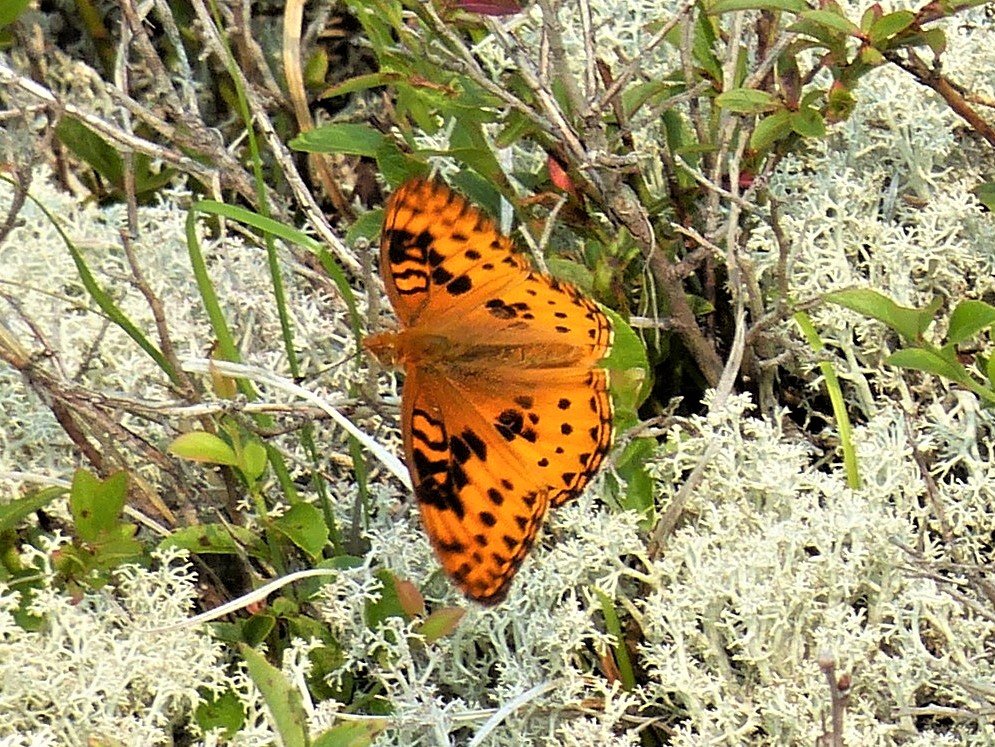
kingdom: Animalia
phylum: Arthropoda
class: Insecta
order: Lepidoptera
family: Nymphalidae
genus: Speyeria
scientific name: Speyeria aphrodite
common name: Aphrodite Fritillary
